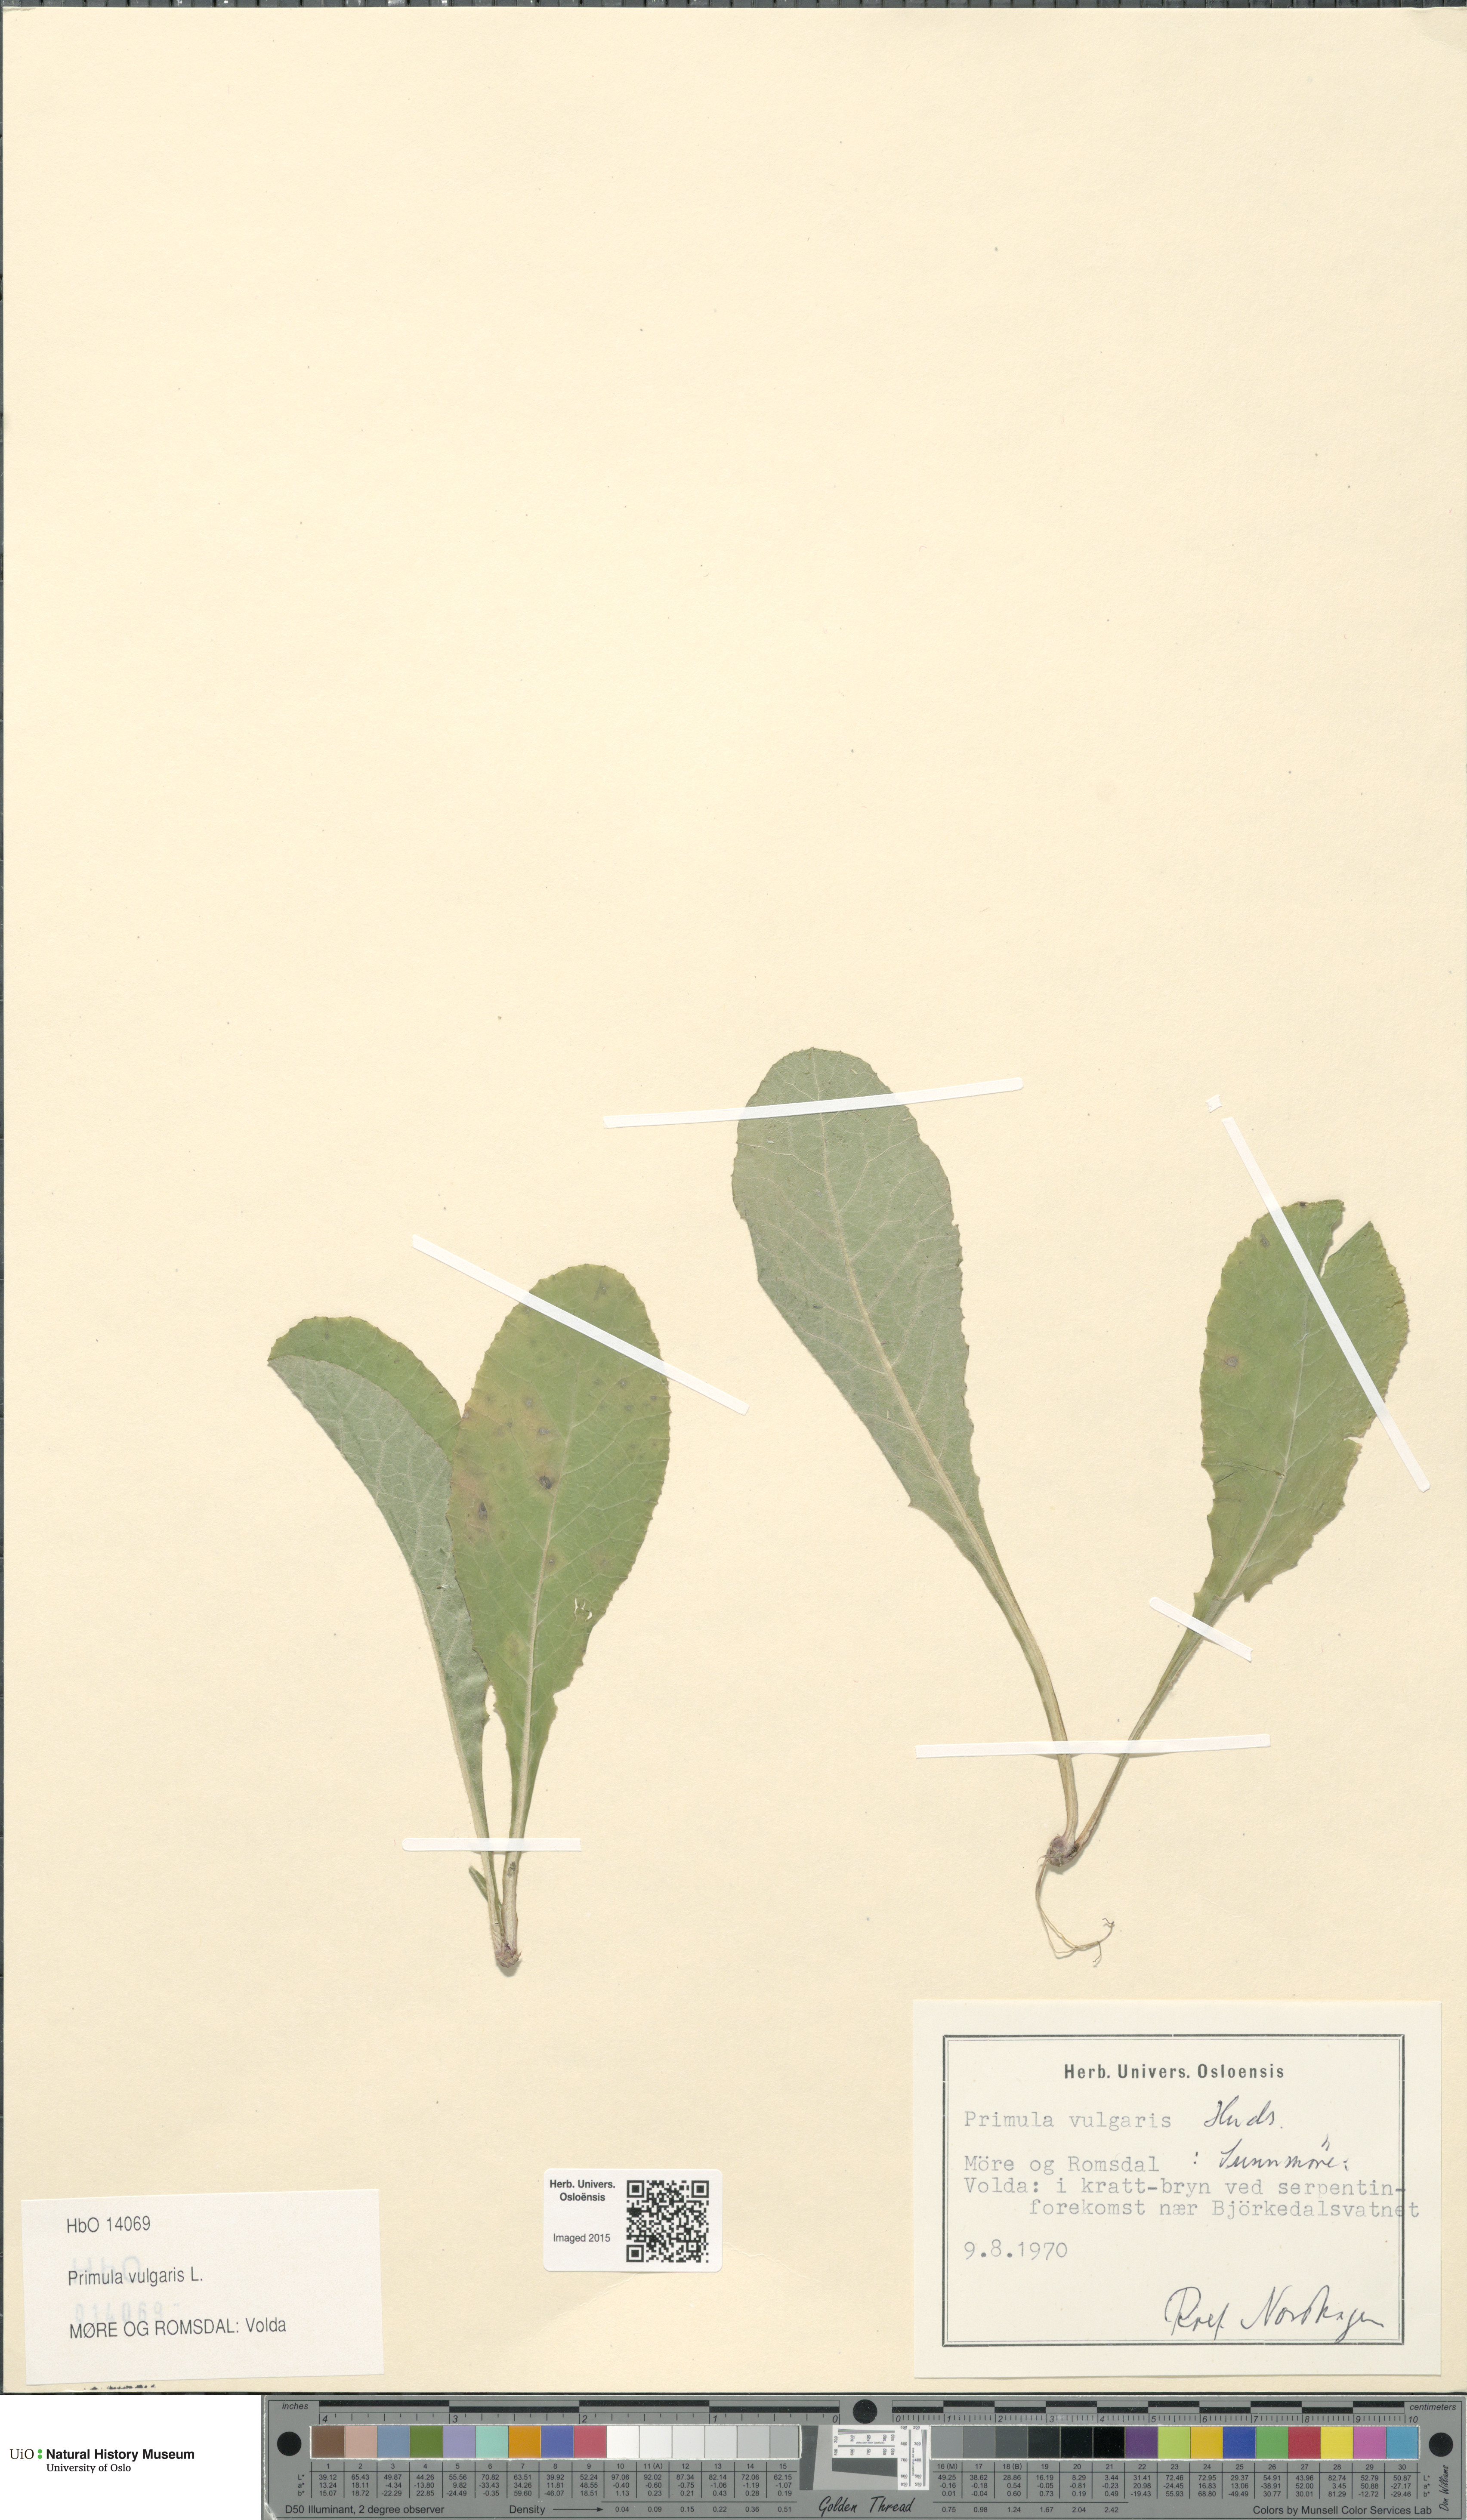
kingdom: Plantae
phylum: Tracheophyta
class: Magnoliopsida
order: Ericales
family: Primulaceae
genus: Primula
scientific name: Primula vulgaris
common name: Primrose
